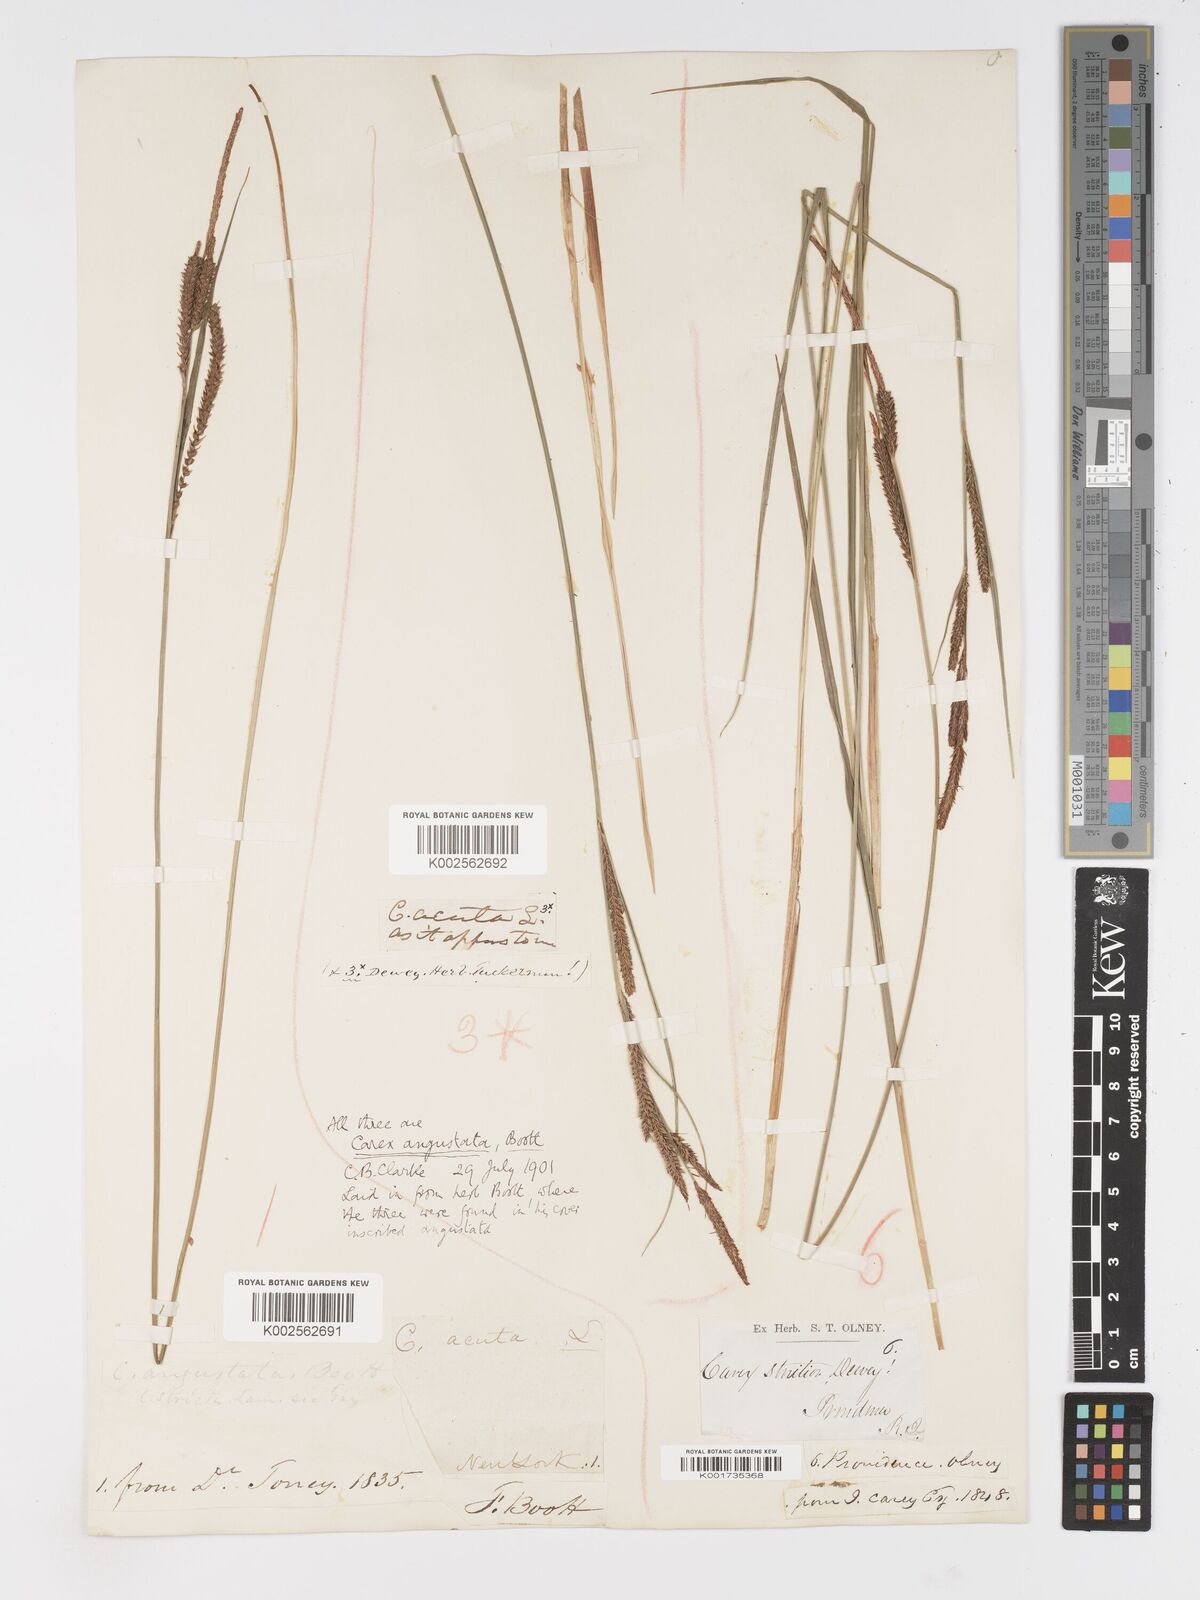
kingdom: Plantae
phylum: Tracheophyta
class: Liliopsida
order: Poales
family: Cyperaceae
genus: Carex
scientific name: Carex stricta
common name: Hummock sedge
